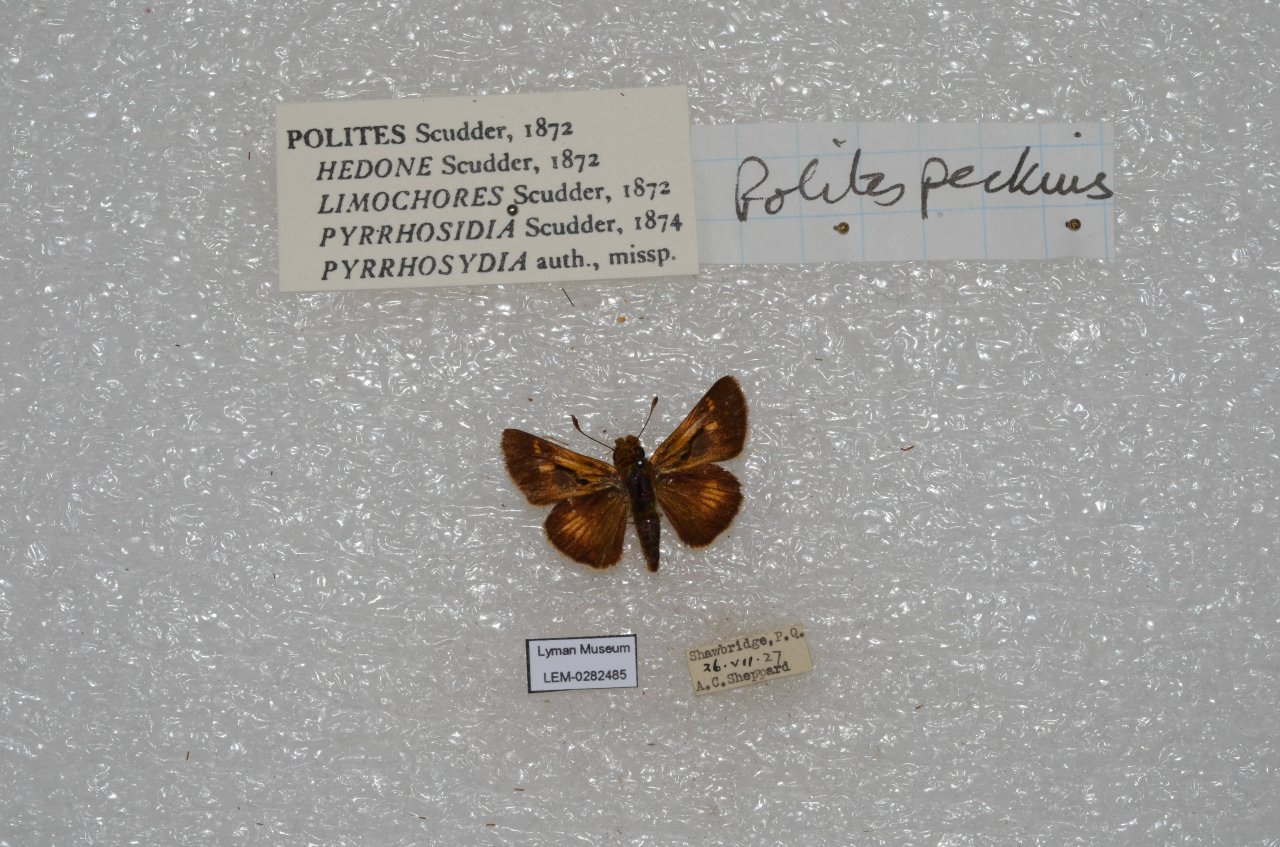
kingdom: Animalia
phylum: Arthropoda
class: Insecta
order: Lepidoptera
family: Hesperiidae
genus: Polites
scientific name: Polites coras
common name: Peck's Skipper
